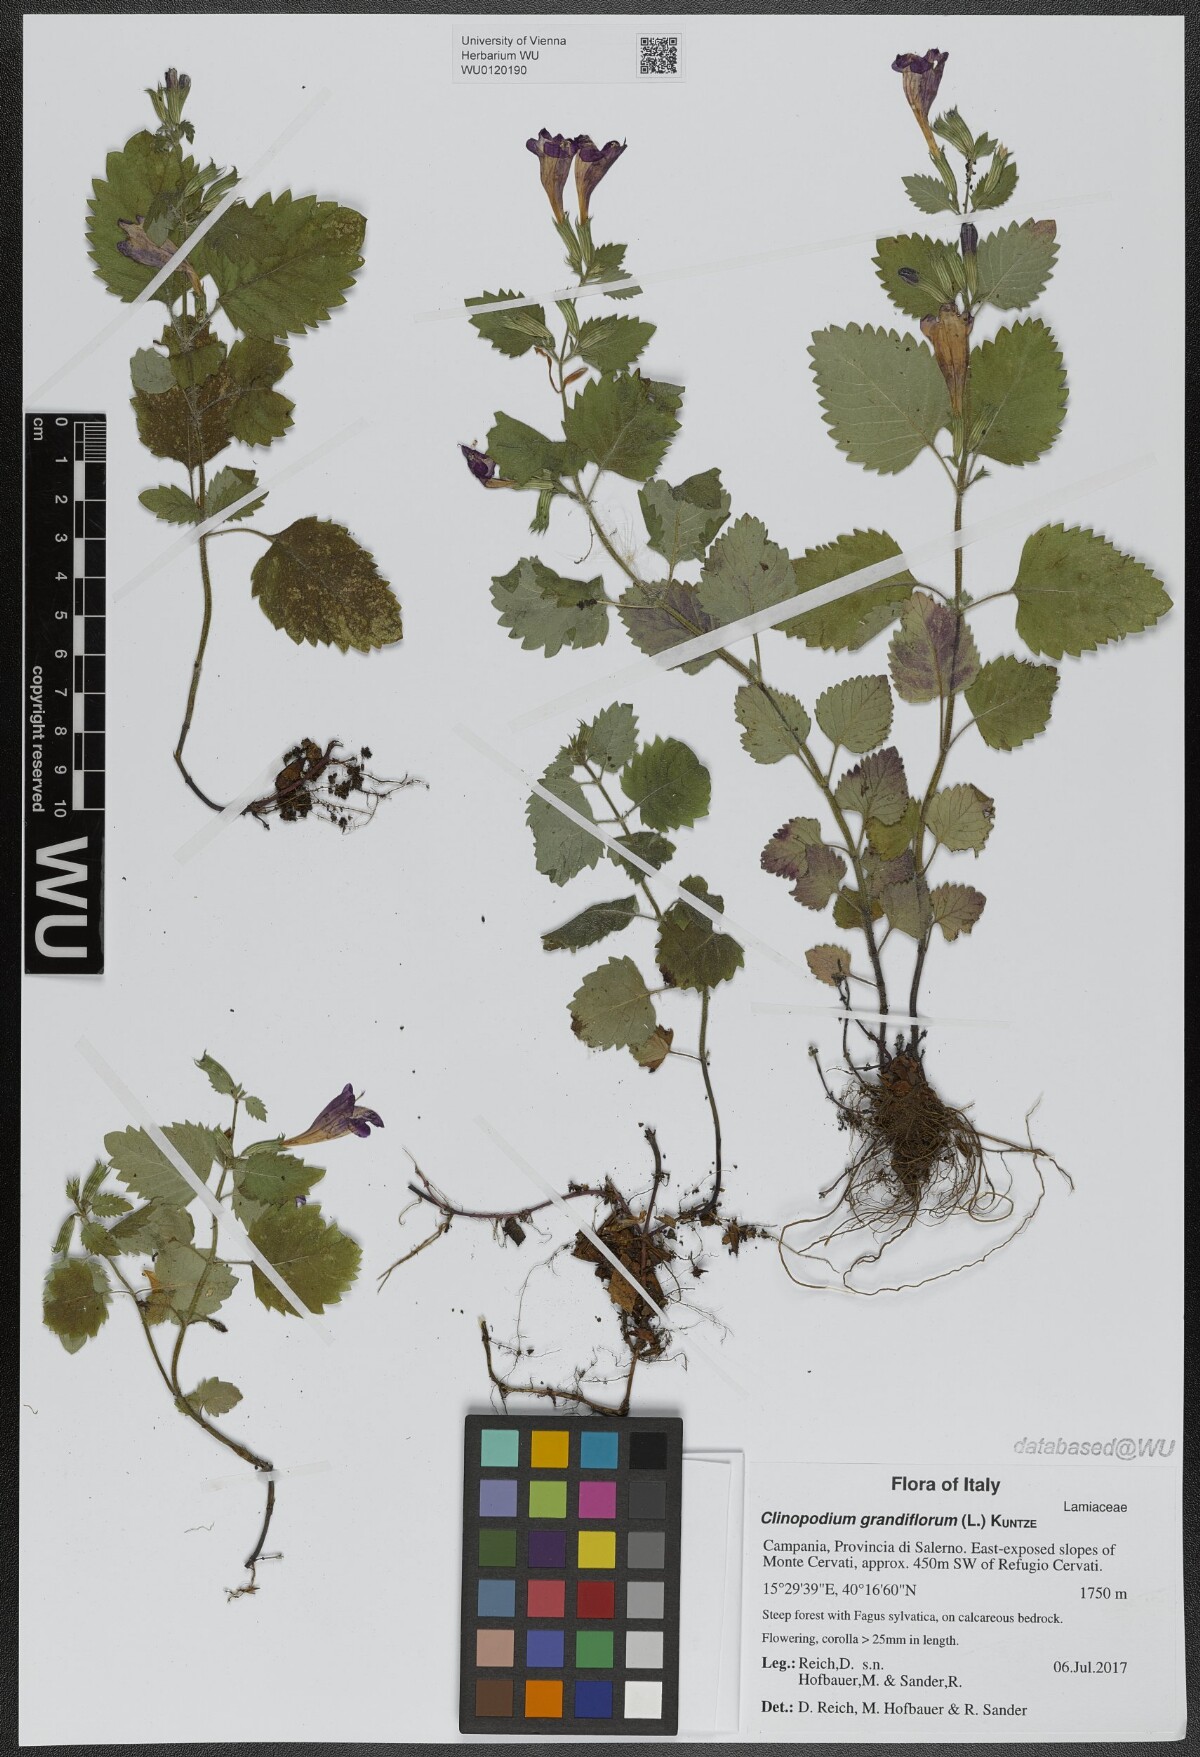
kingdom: Plantae
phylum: Tracheophyta
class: Magnoliopsida
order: Lamiales
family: Lamiaceae
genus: Clinopodium
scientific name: Clinopodium grandiflorum
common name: Greater calamint
